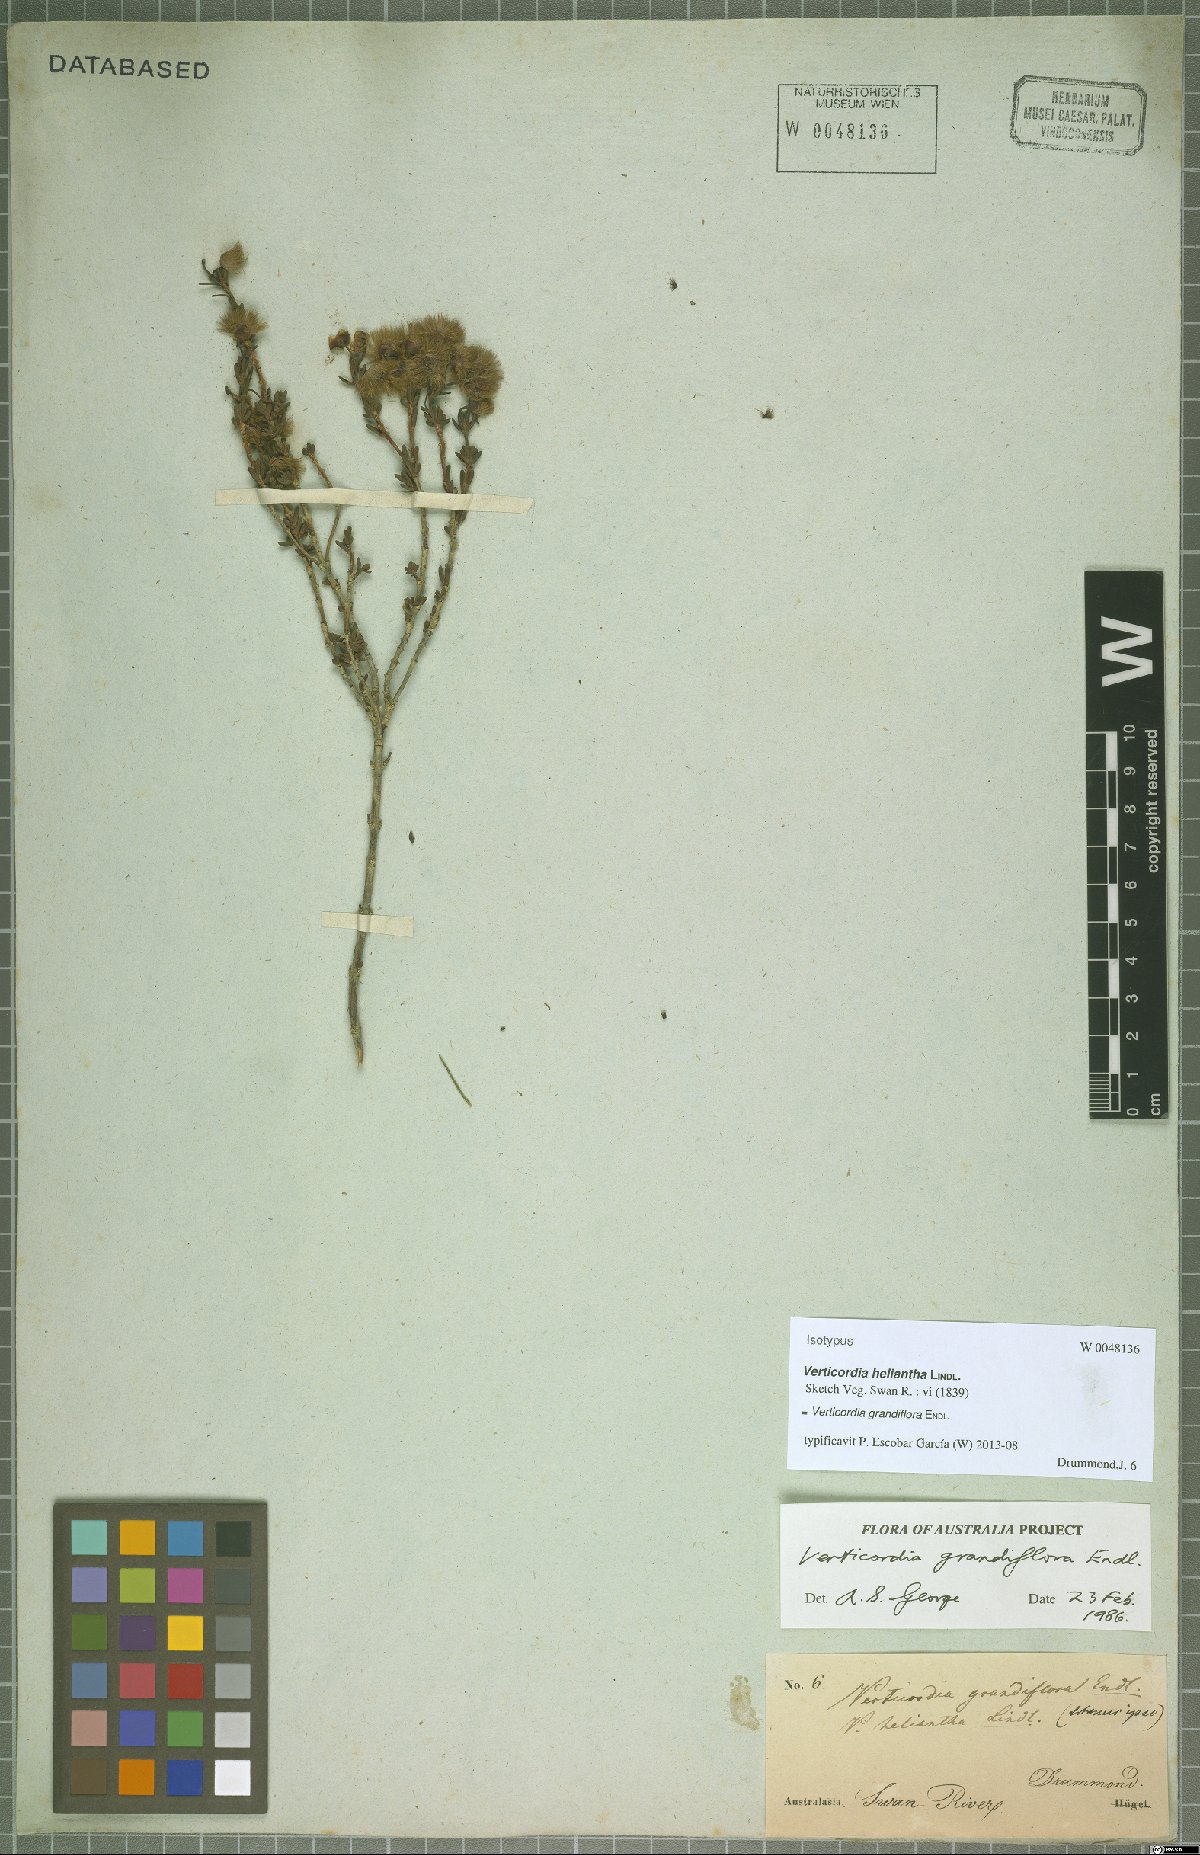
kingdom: Plantae
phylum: Tracheophyta
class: Magnoliopsida
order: Myrtales
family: Myrtaceae
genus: Verticordia
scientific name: Verticordia grandiflora
